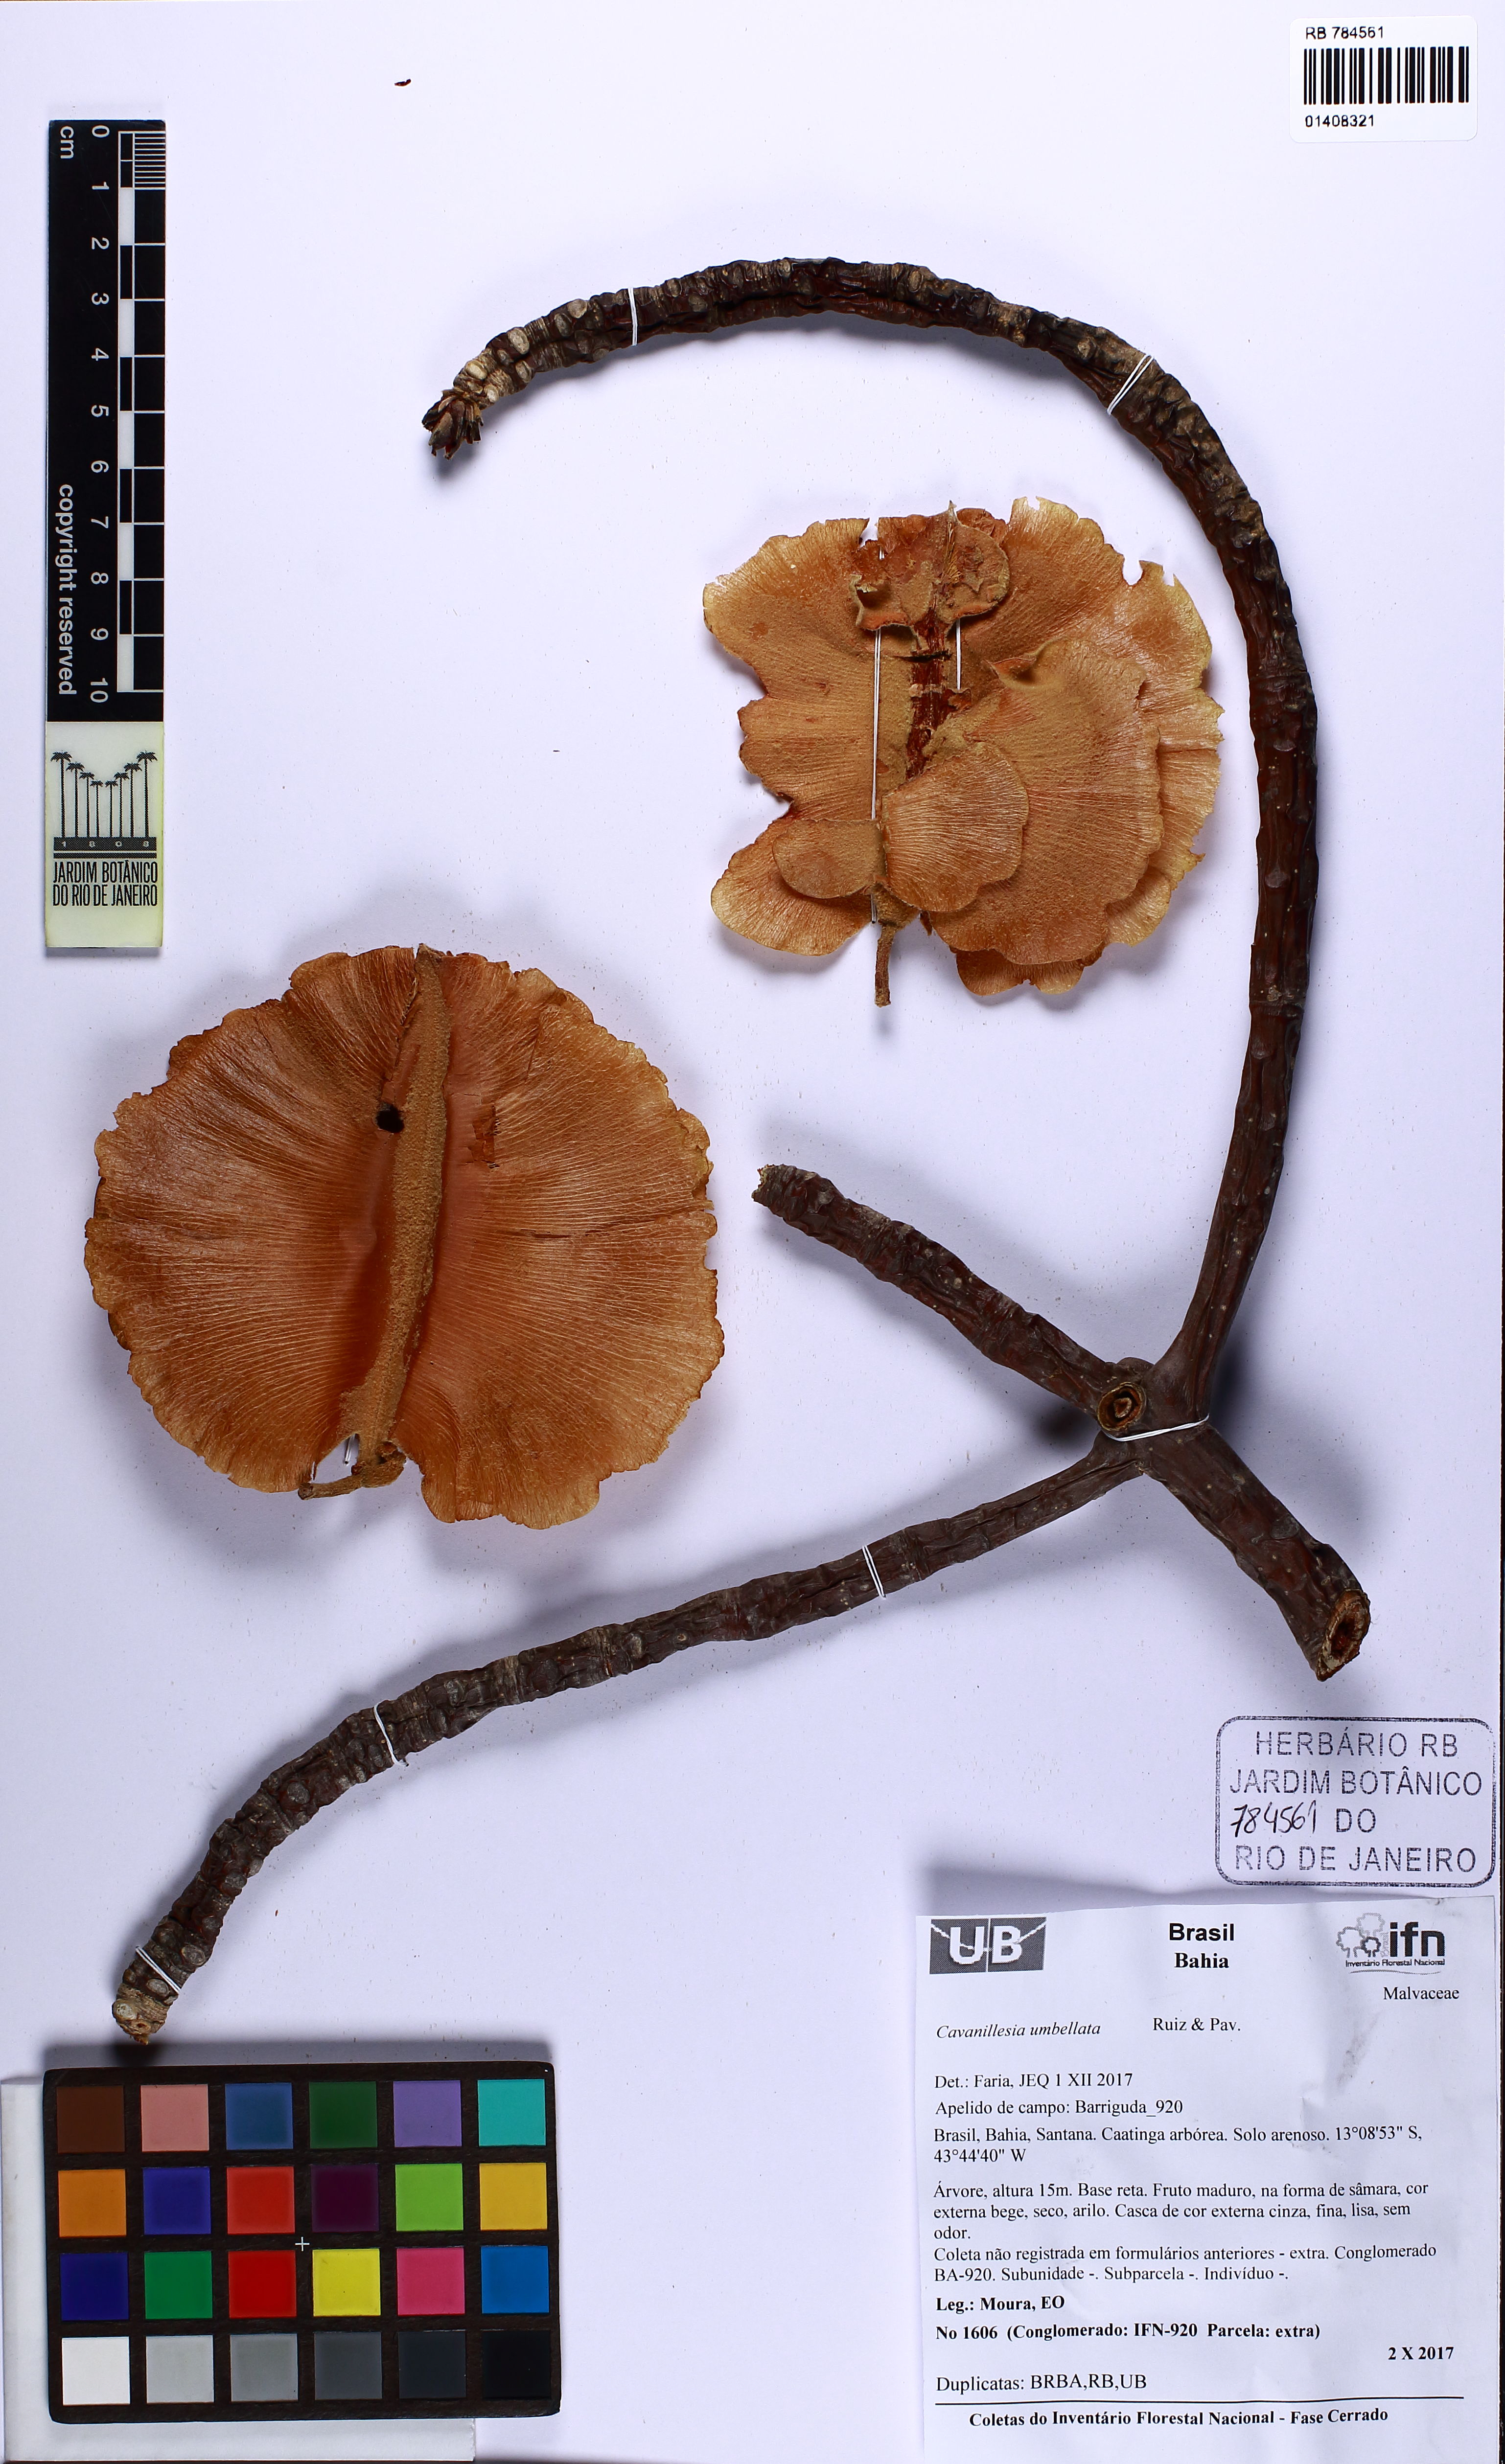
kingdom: Plantae
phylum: Tracheophyta
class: Magnoliopsida
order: Malvales
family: Malvaceae
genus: Cavanillesia
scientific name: Cavanillesia umbellata
